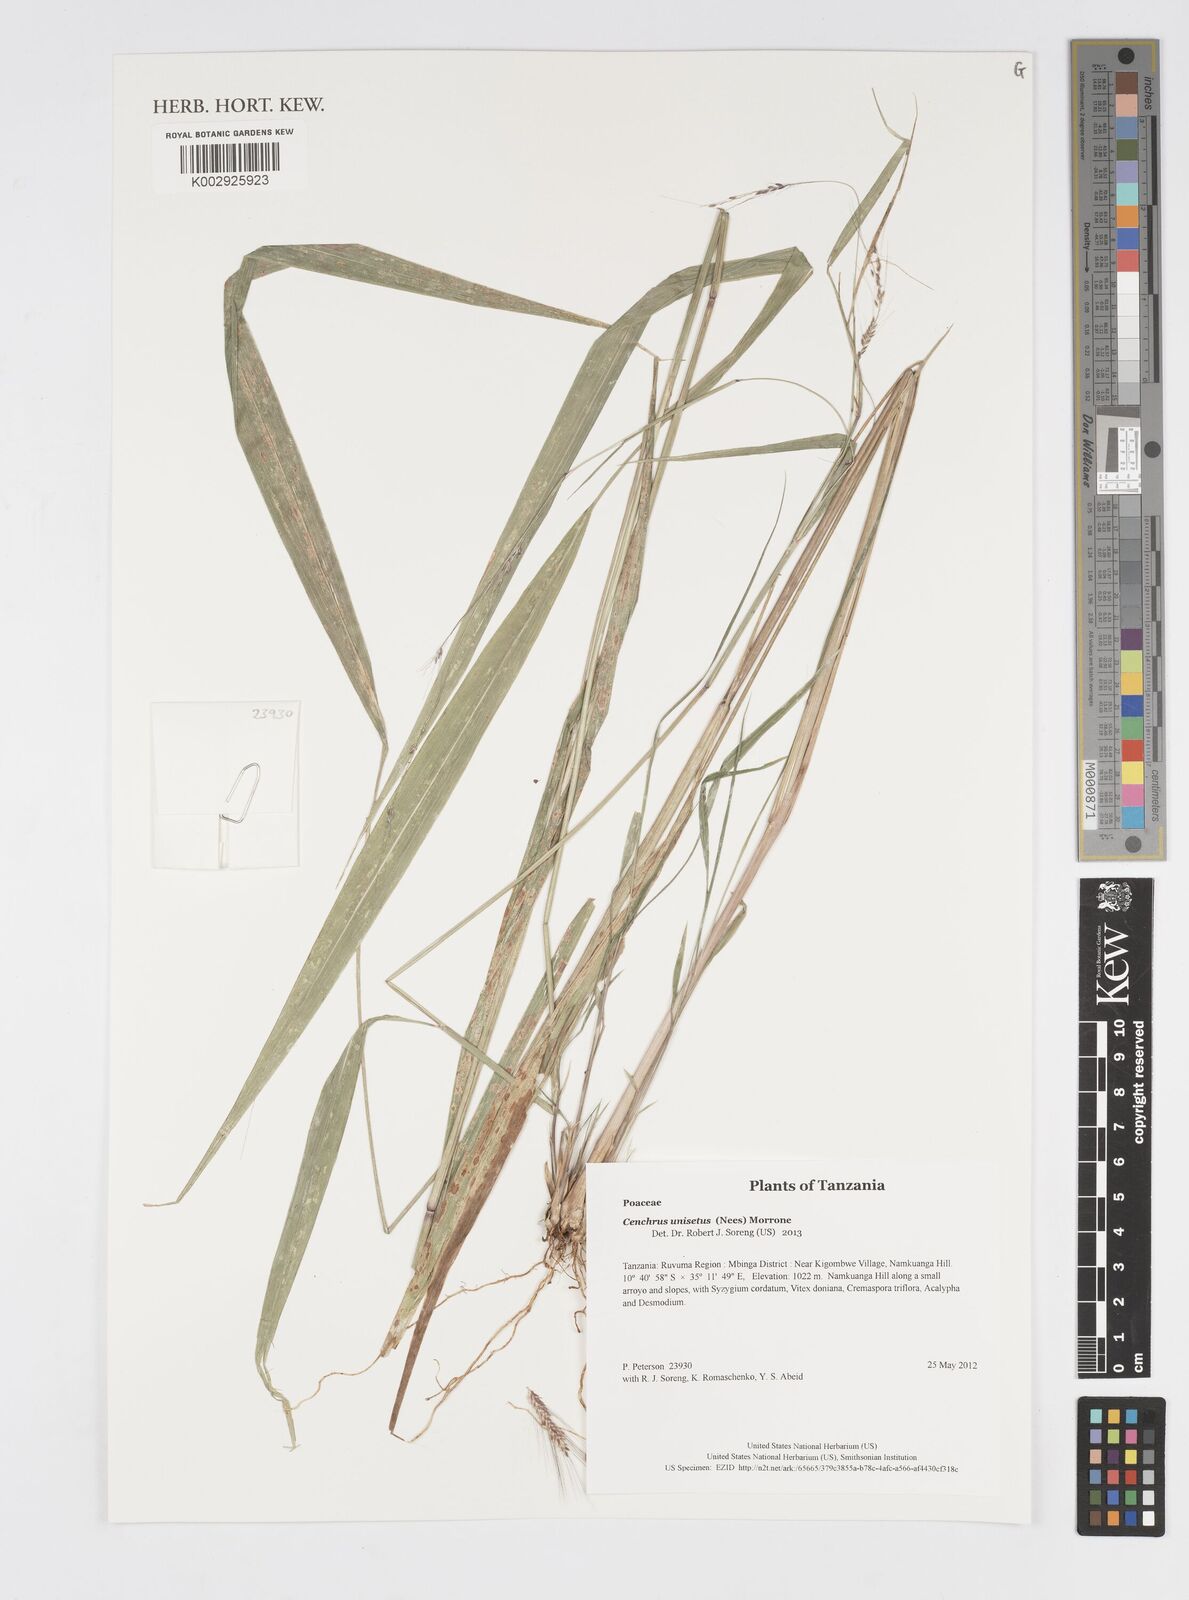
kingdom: Plantae
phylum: Tracheophyta
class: Liliopsida
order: Poales
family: Poaceae
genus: Cenchrus
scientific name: Cenchrus unisetus
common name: Natal grass
